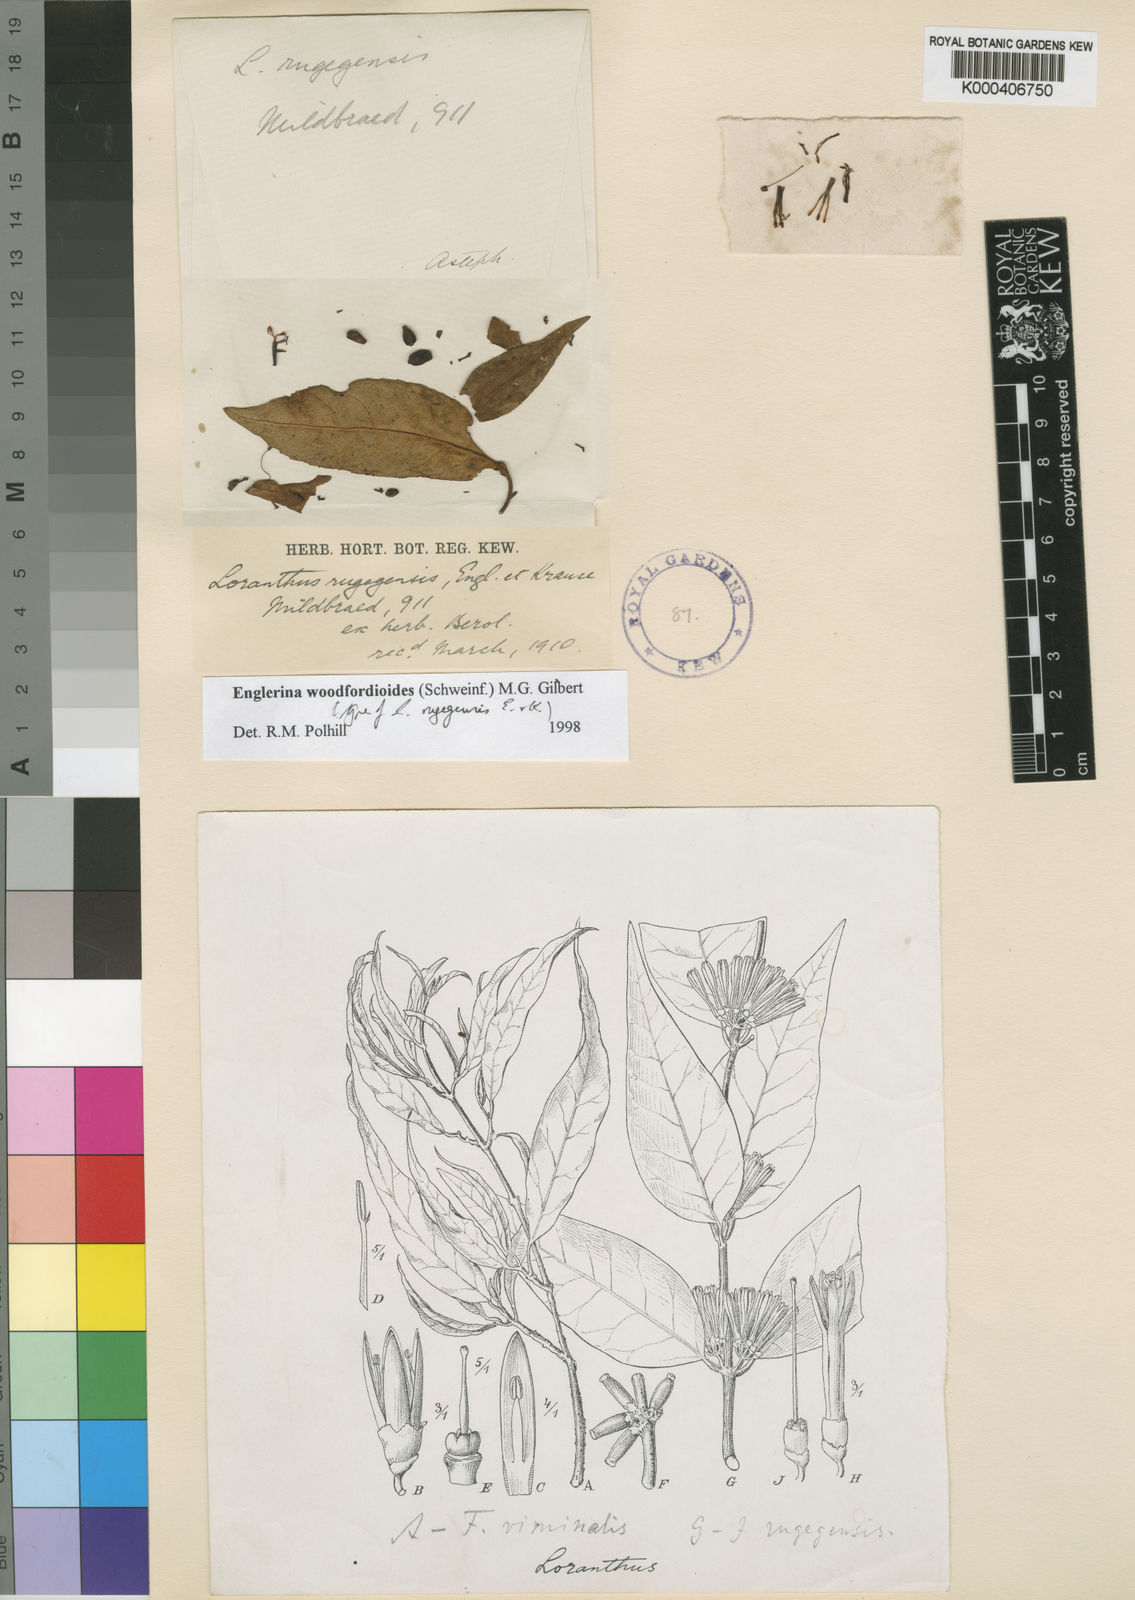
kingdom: Plantae
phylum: Tracheophyta
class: Magnoliopsida
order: Santalales
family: Loranthaceae
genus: Englerina
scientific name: Englerina
